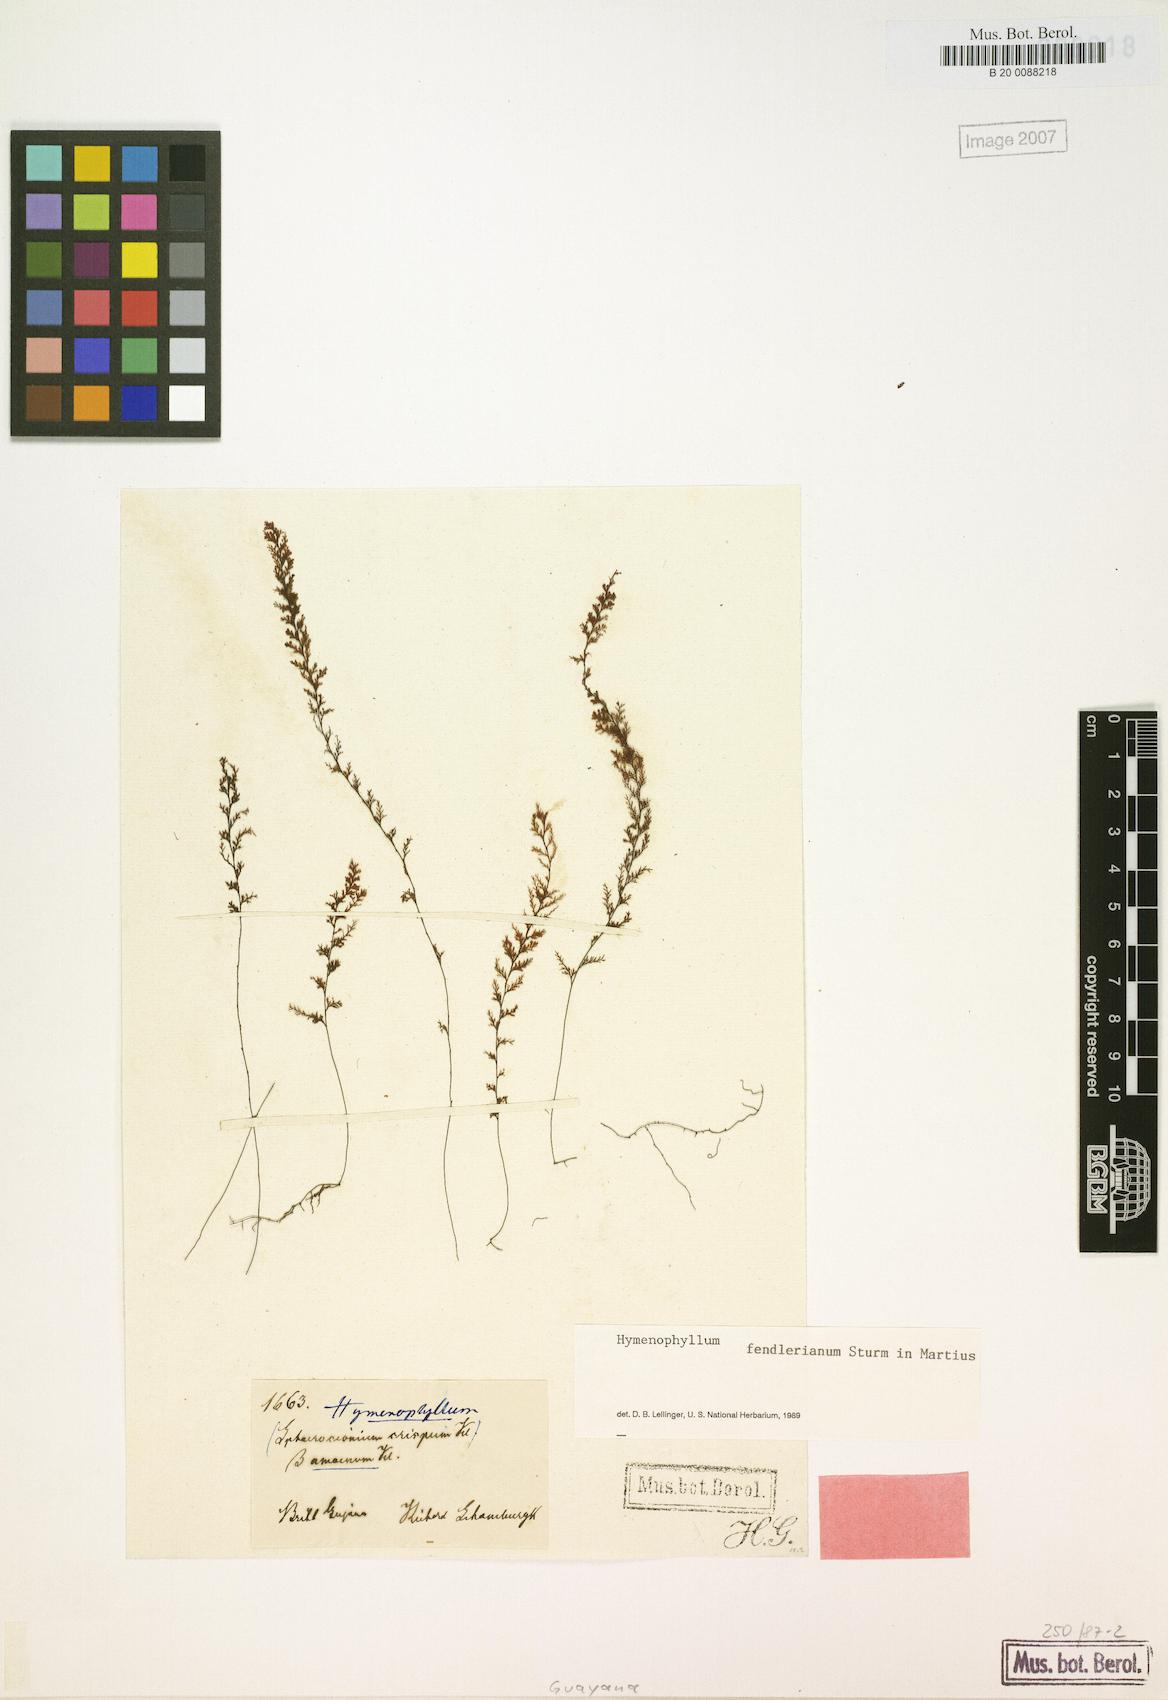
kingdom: Plantae
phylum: Tracheophyta
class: Polypodiopsida
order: Hymenophyllales
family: Hymenophyllaceae
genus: Hymenophyllum
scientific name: Hymenophyllum fendlerianum
